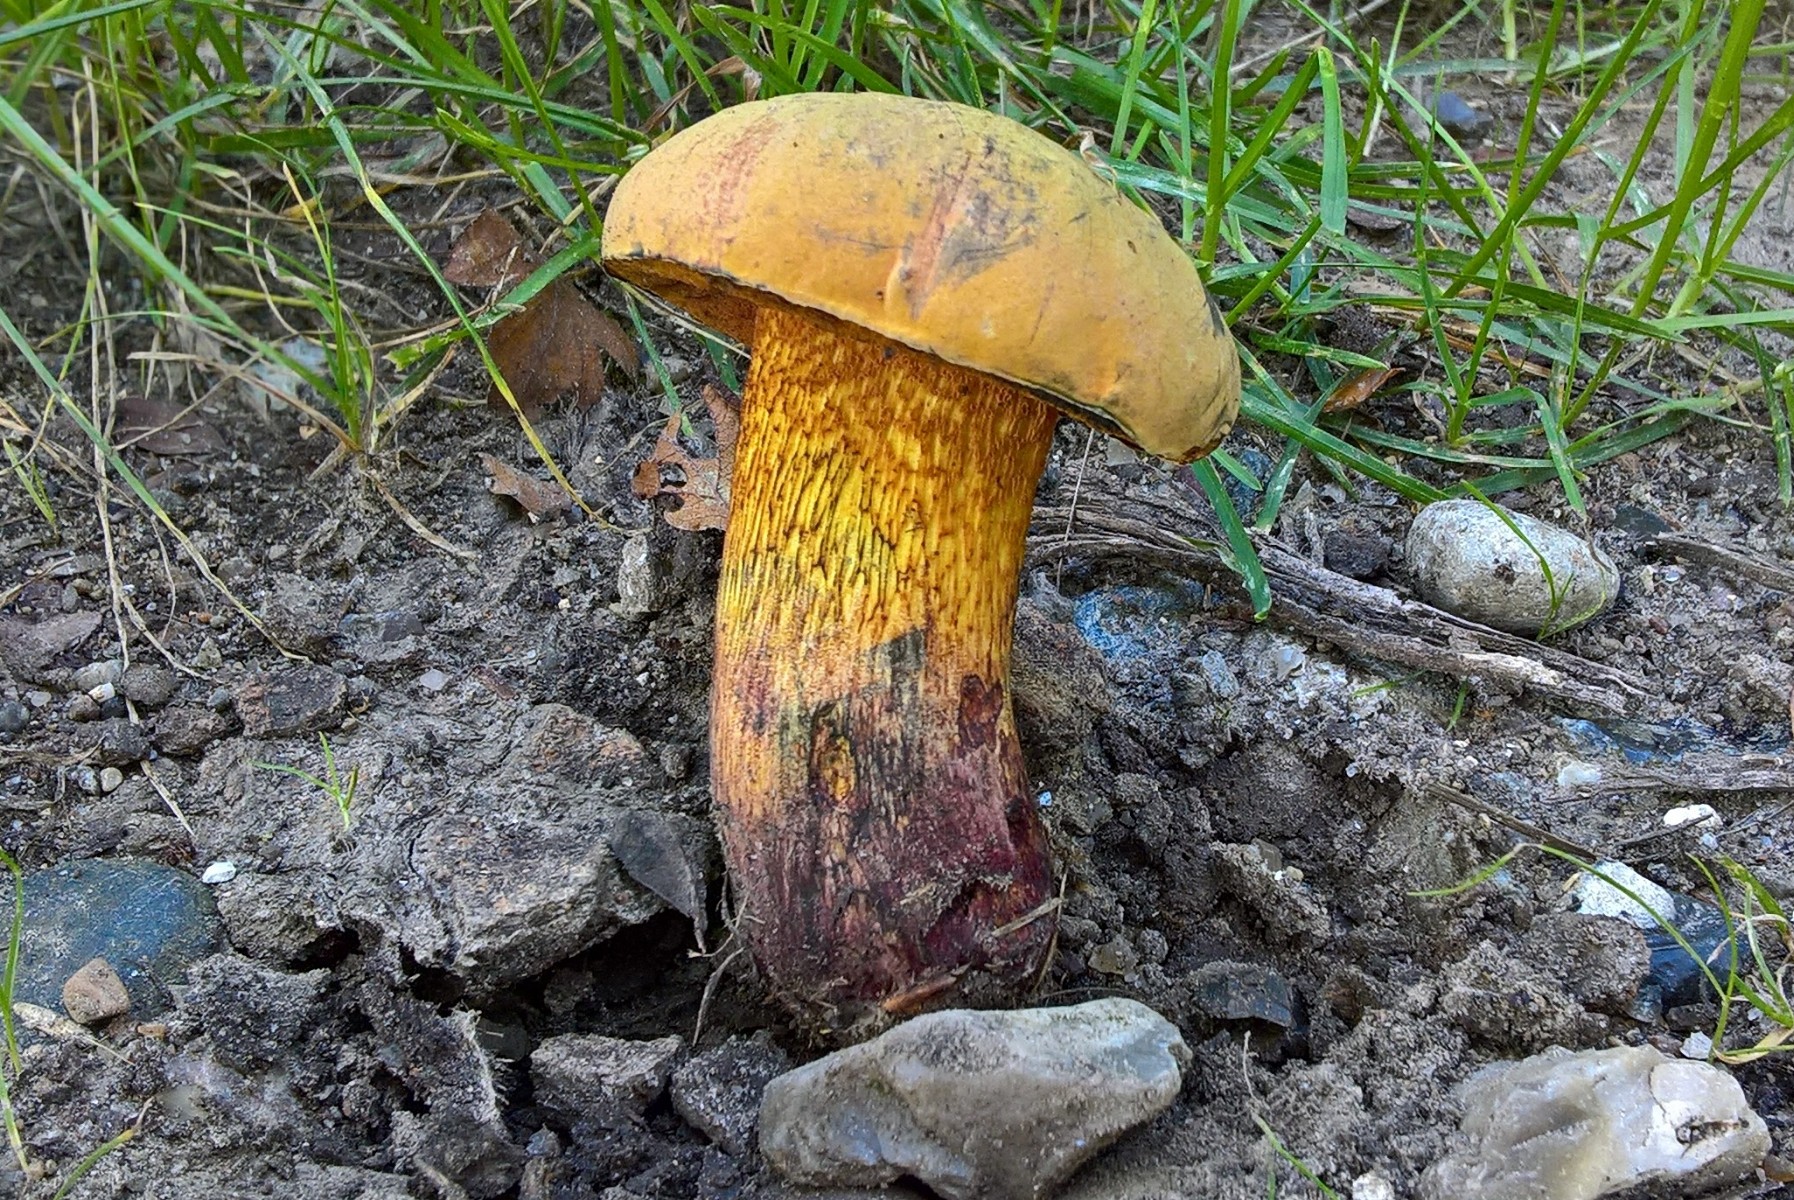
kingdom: Fungi
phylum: Basidiomycota
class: Agaricomycetes
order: Boletales
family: Boletaceae
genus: Suillellus
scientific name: Suillellus luridus
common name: netstokket indigorørhat
